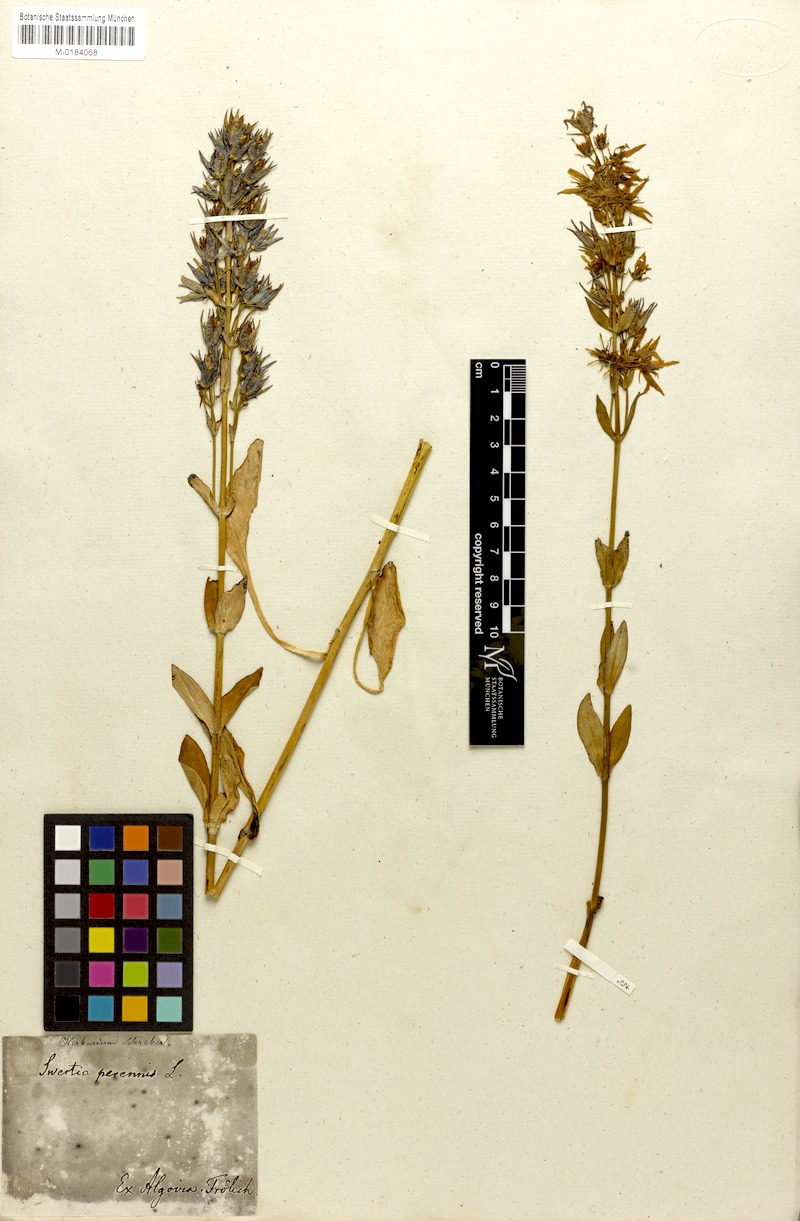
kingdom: Plantae
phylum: Tracheophyta
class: Magnoliopsida
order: Gentianales
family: Gentianaceae
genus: Swertia
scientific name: Swertia perennis
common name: Alpine bog swertia
